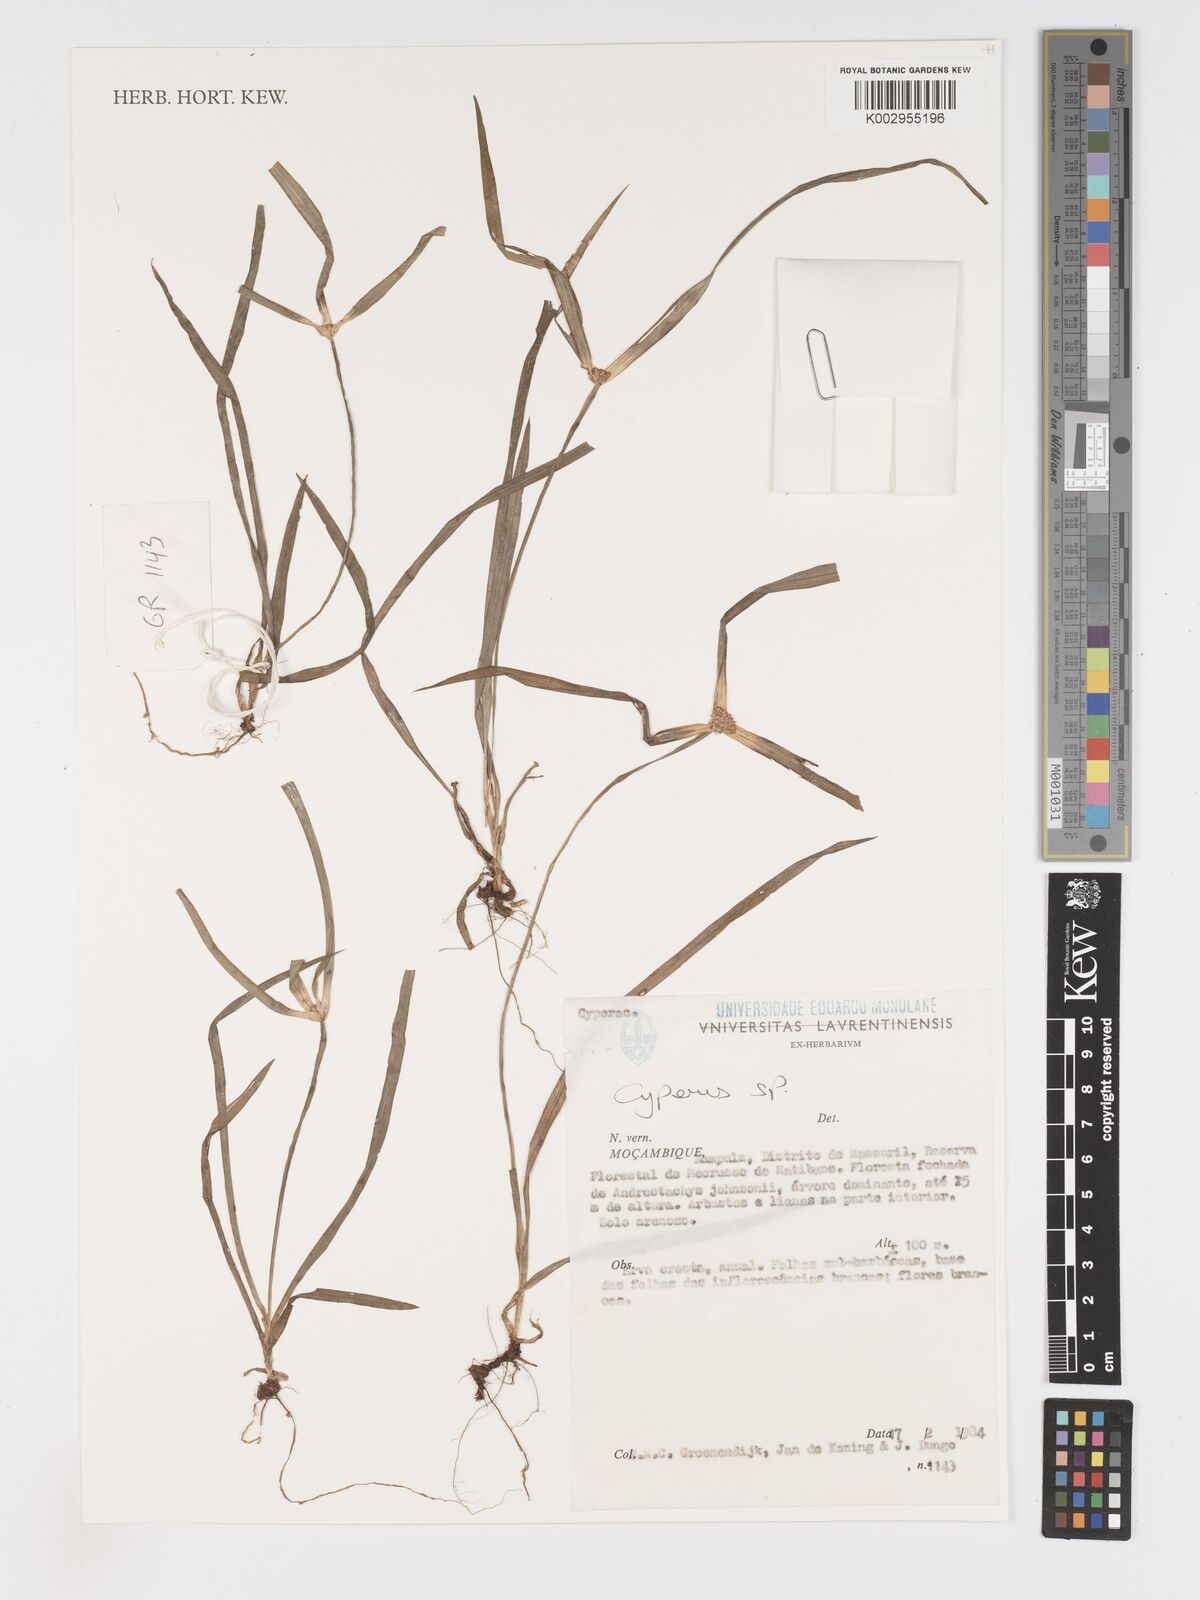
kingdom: Plantae
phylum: Tracheophyta
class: Liliopsida
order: Poales
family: Cyperaceae
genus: Cyperus
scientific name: Cyperus
